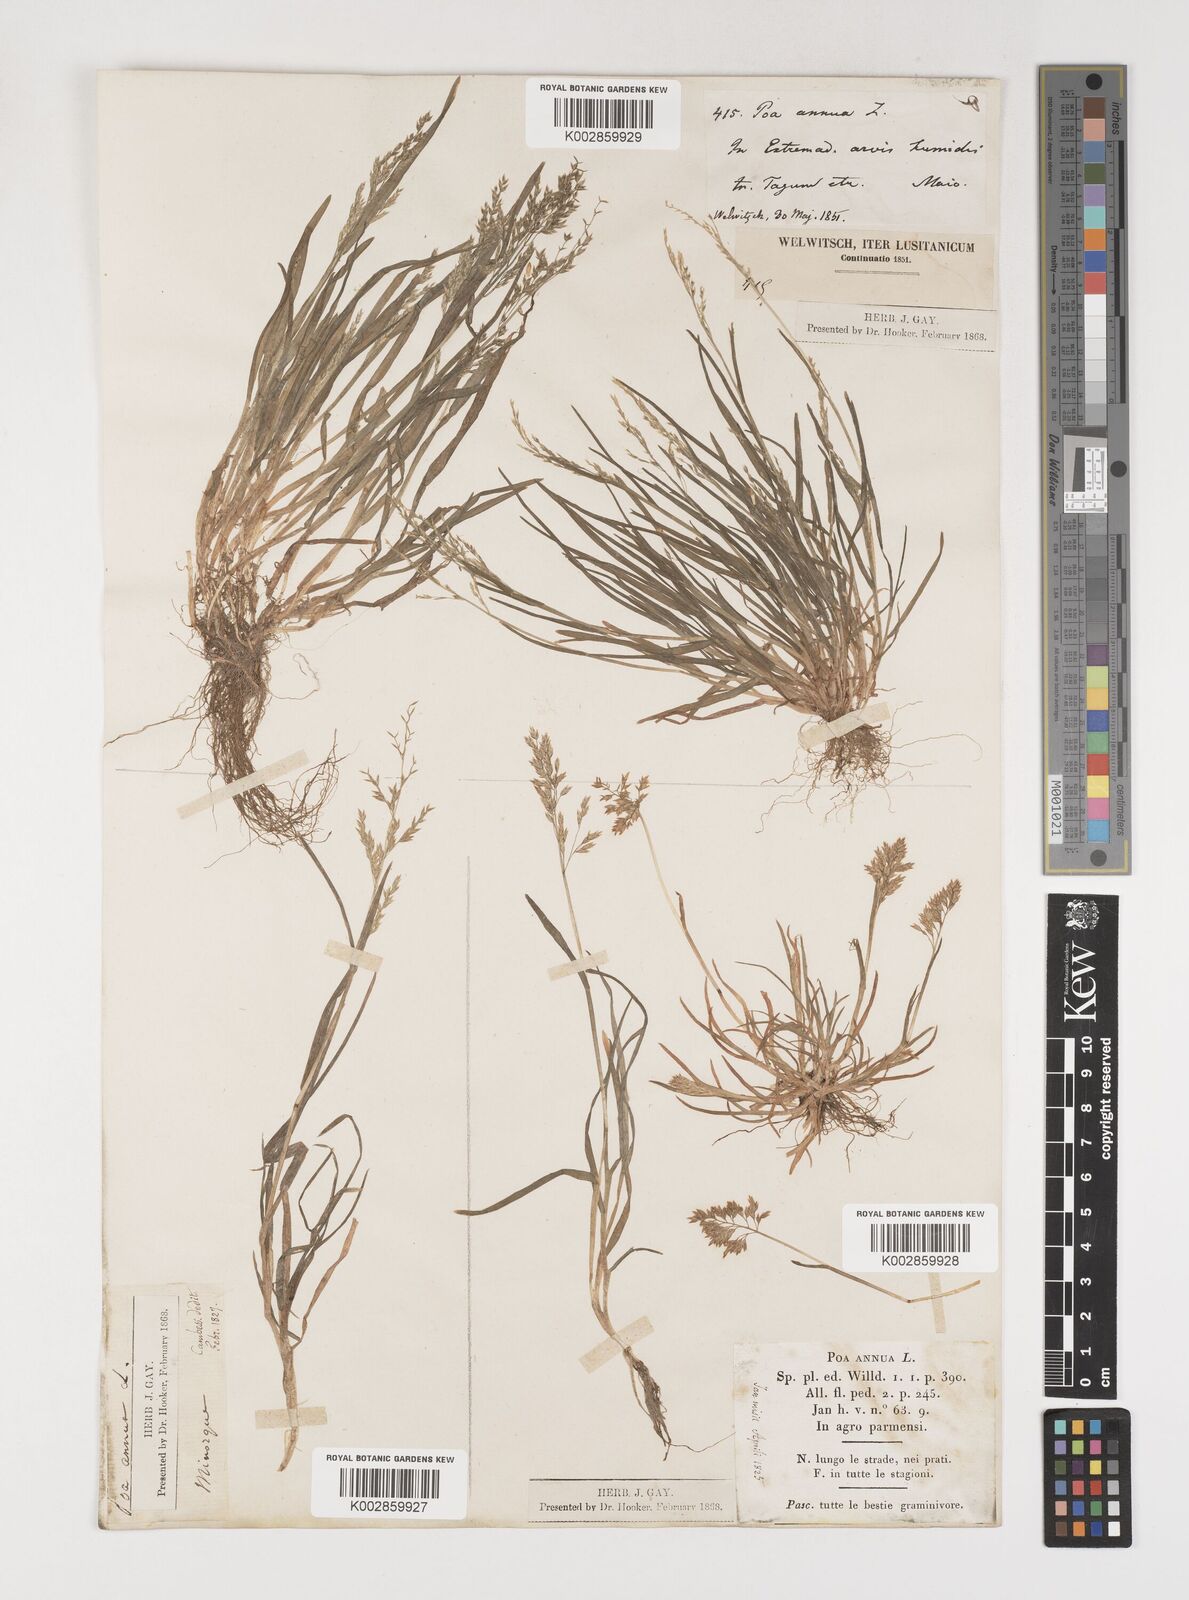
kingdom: Plantae
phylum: Tracheophyta
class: Liliopsida
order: Poales
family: Poaceae
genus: Poa
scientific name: Poa annua
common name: Annual bluegrass
